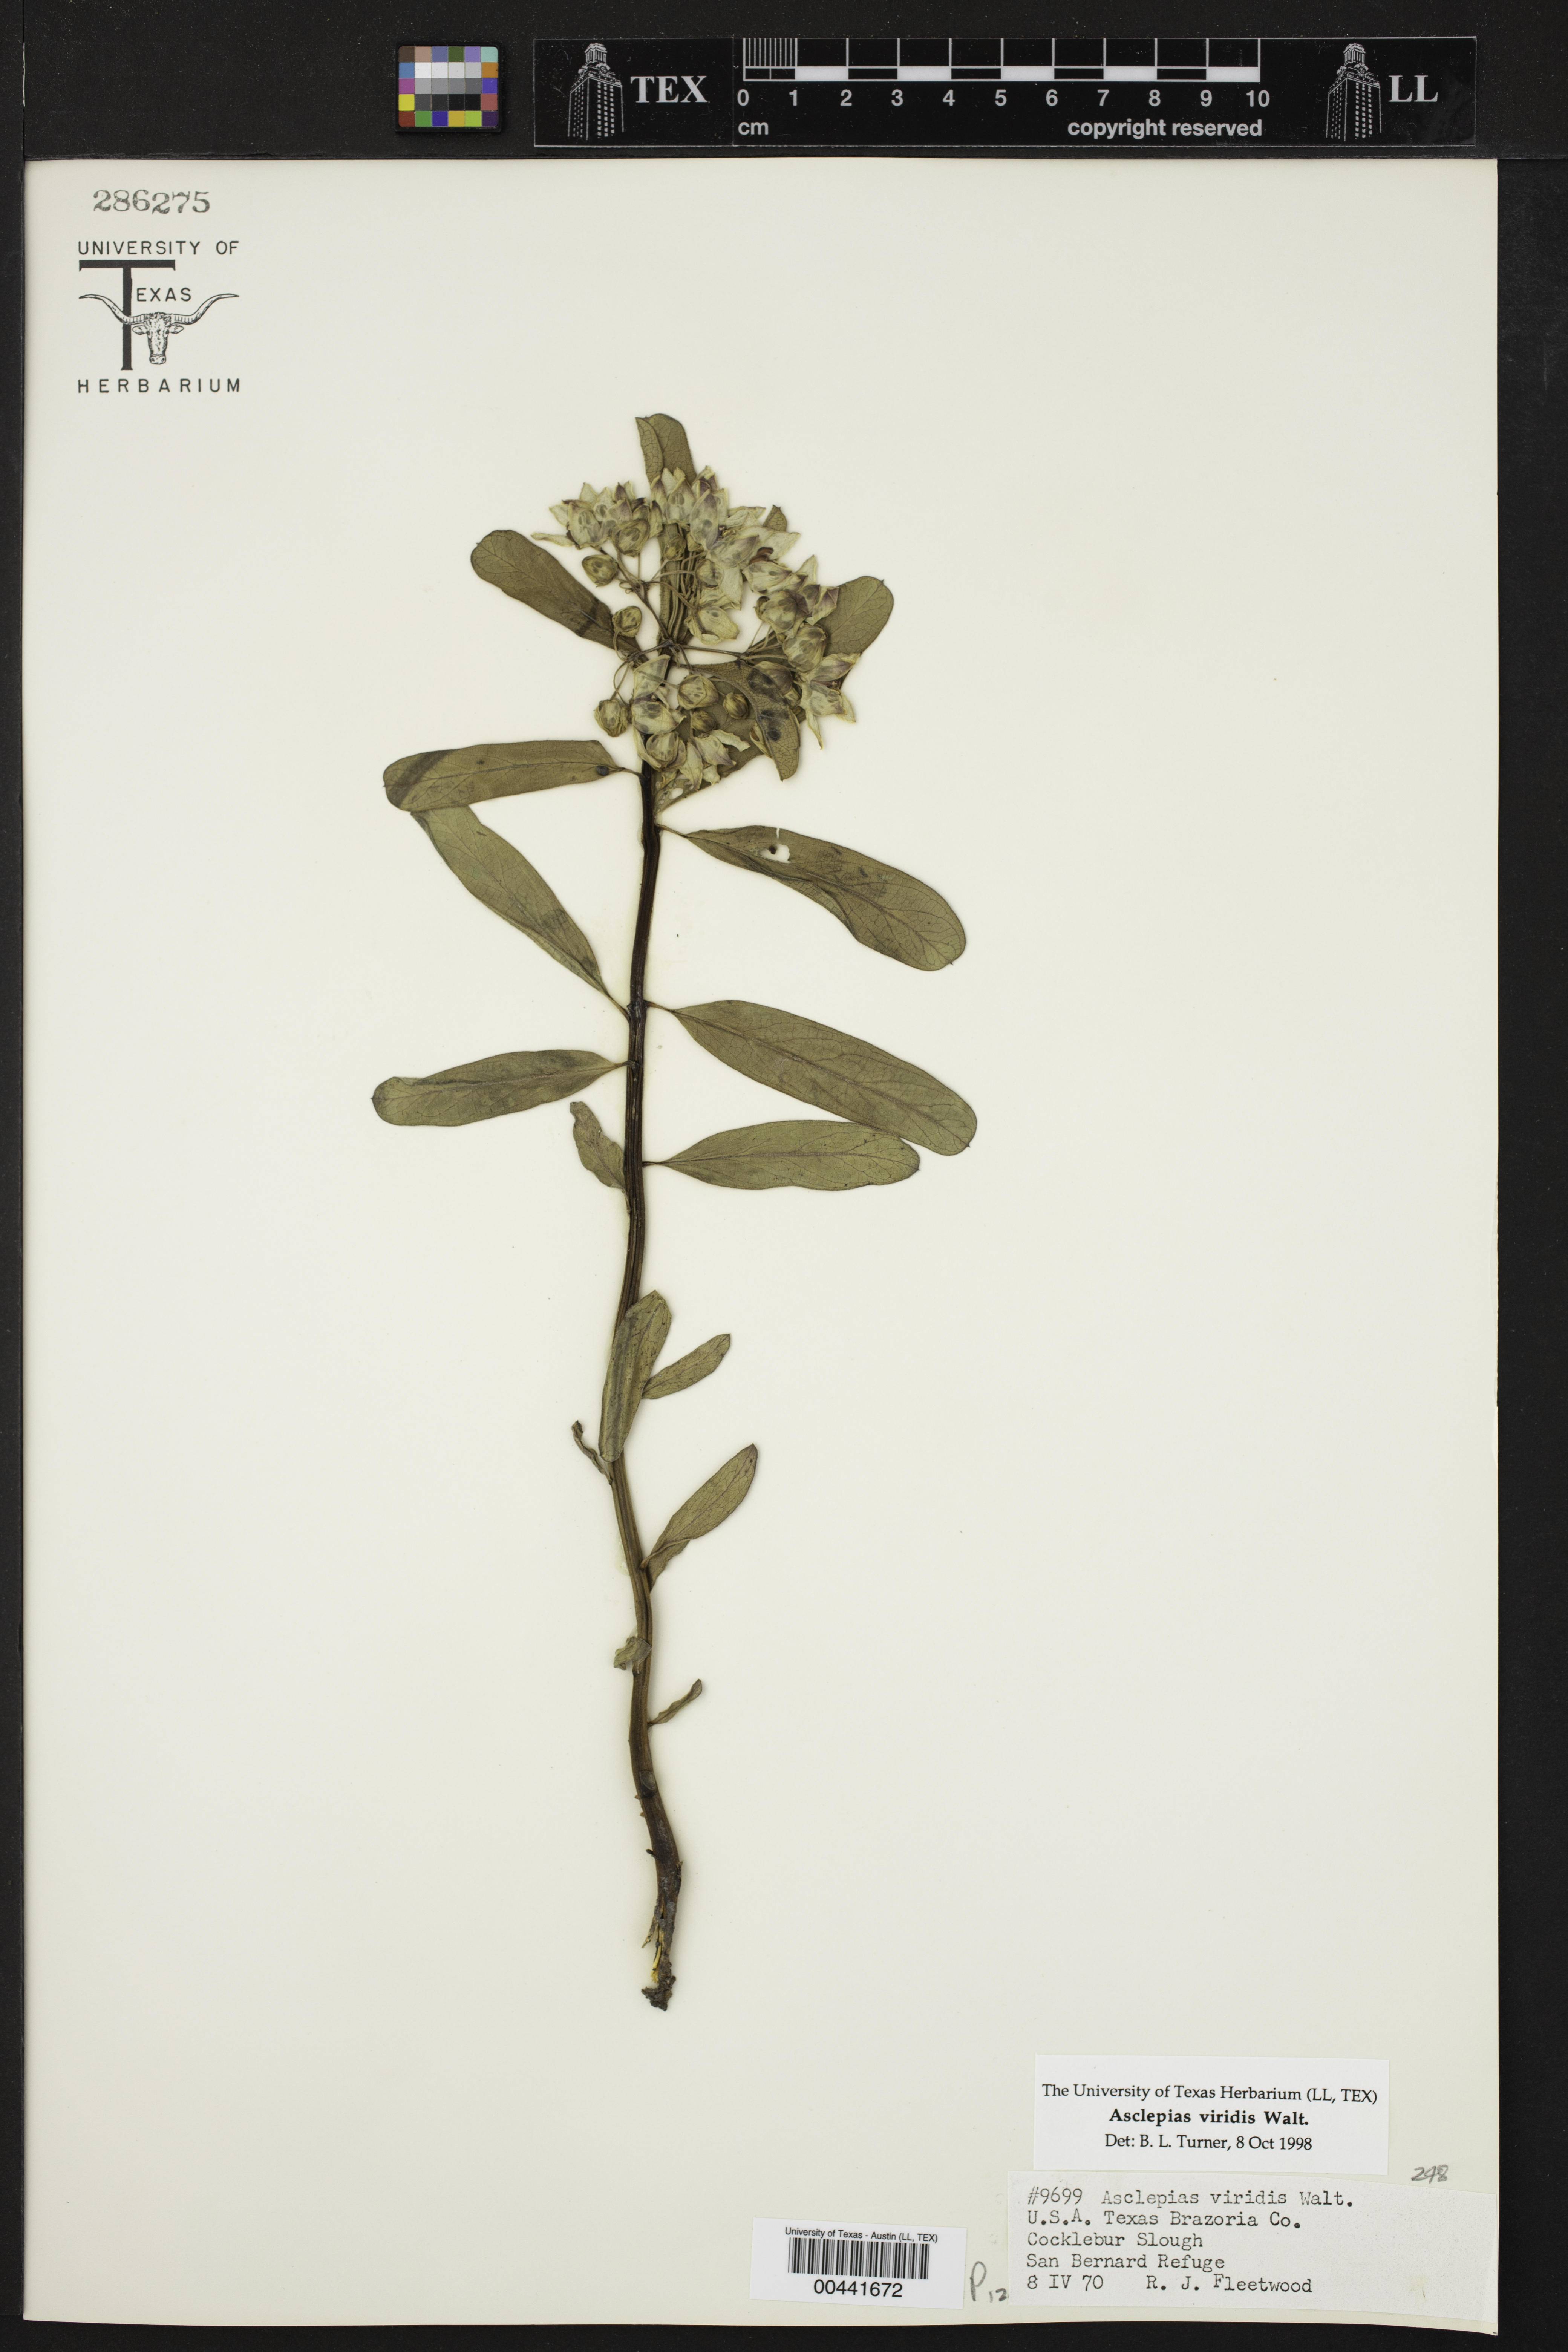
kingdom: Plantae
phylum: Tracheophyta
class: Magnoliopsida
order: Gentianales
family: Apocynaceae
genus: Asclepias
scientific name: Asclepias viridis
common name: Antelope-horns
